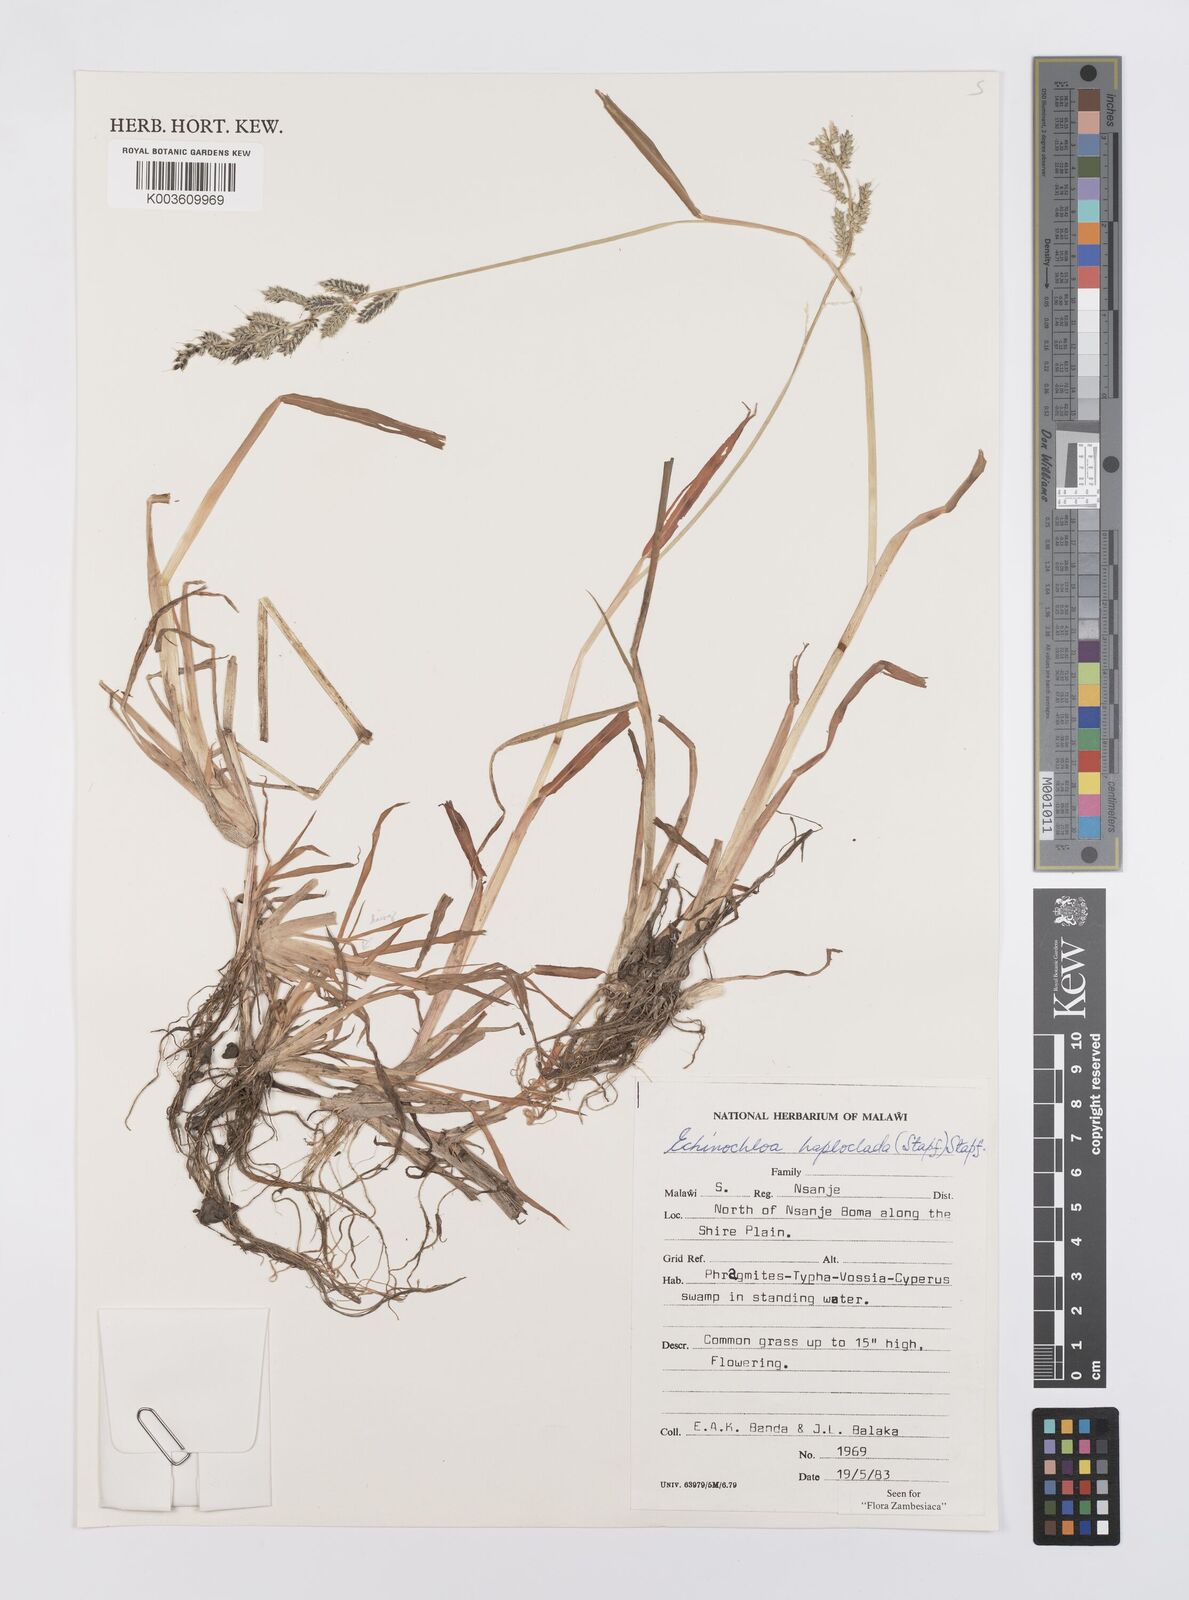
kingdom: Plantae
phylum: Tracheophyta
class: Liliopsida
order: Poales
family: Poaceae
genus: Echinochloa
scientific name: Echinochloa haploclada
